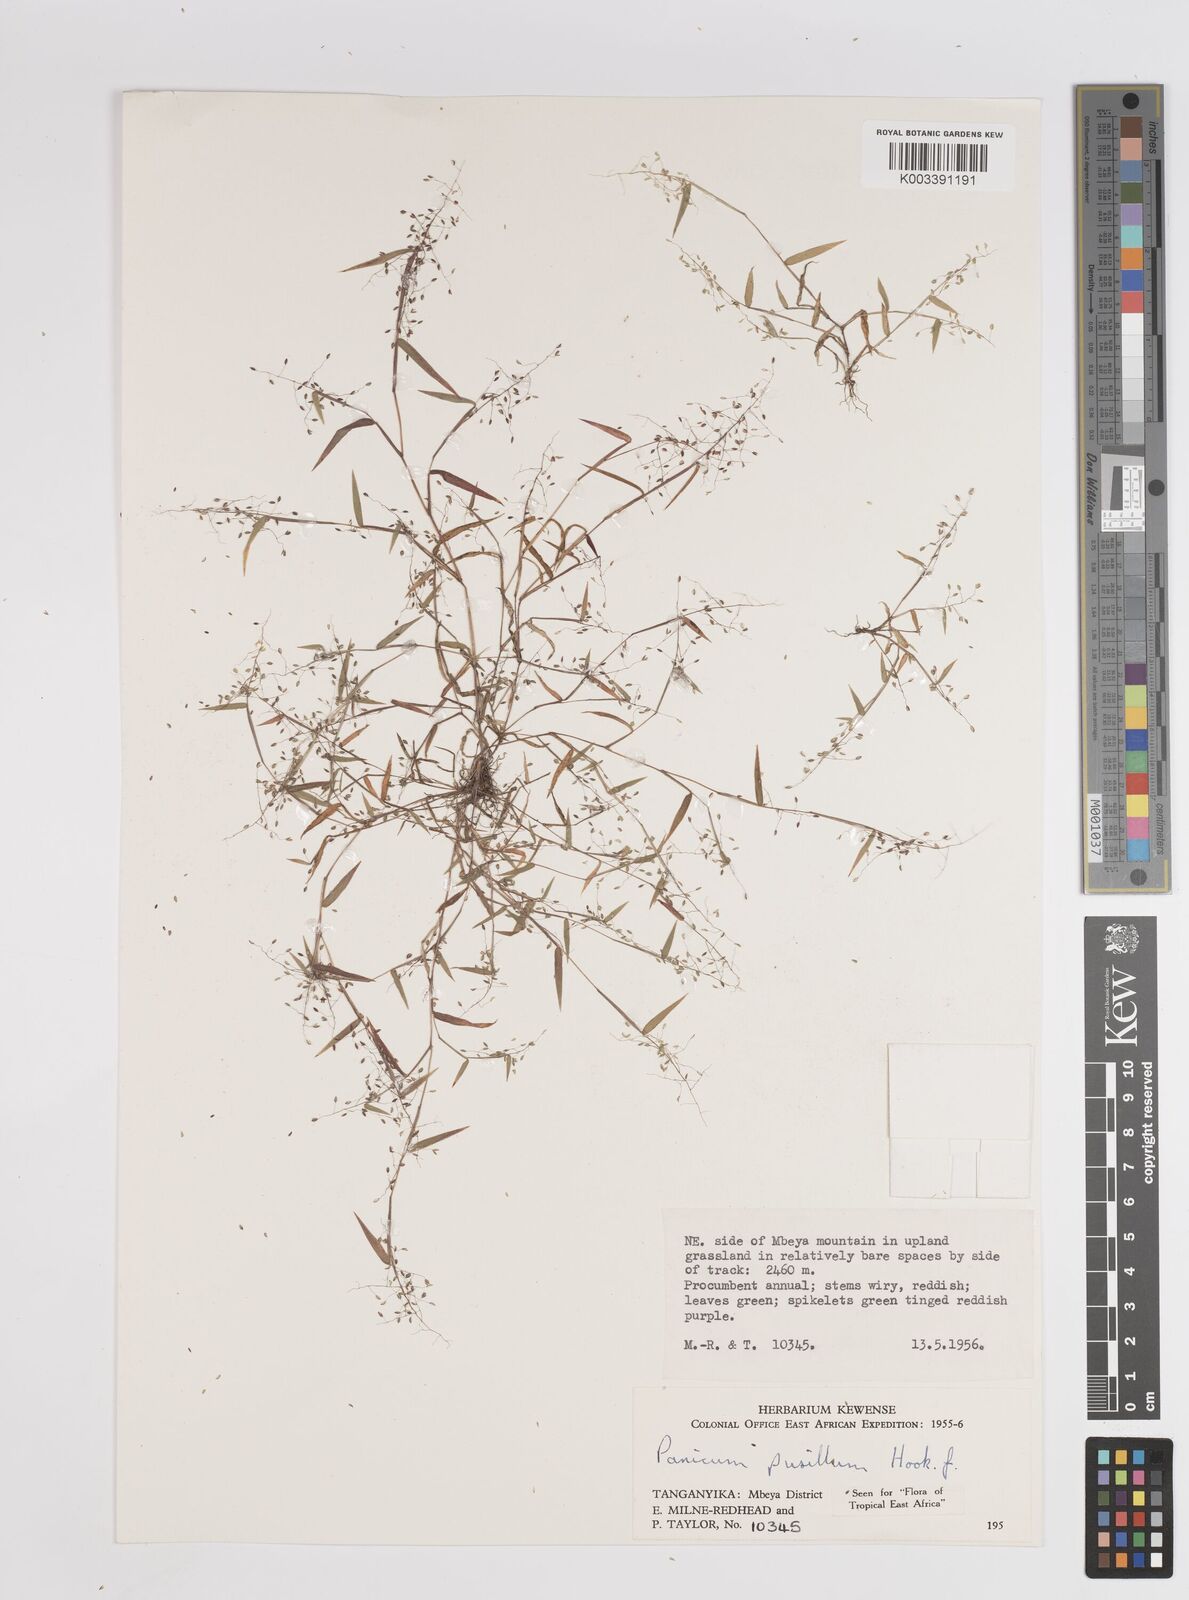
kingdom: Plantae
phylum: Tracheophyta
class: Liliopsida
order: Poales
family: Poaceae
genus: Panicum
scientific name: Panicum pusillum
